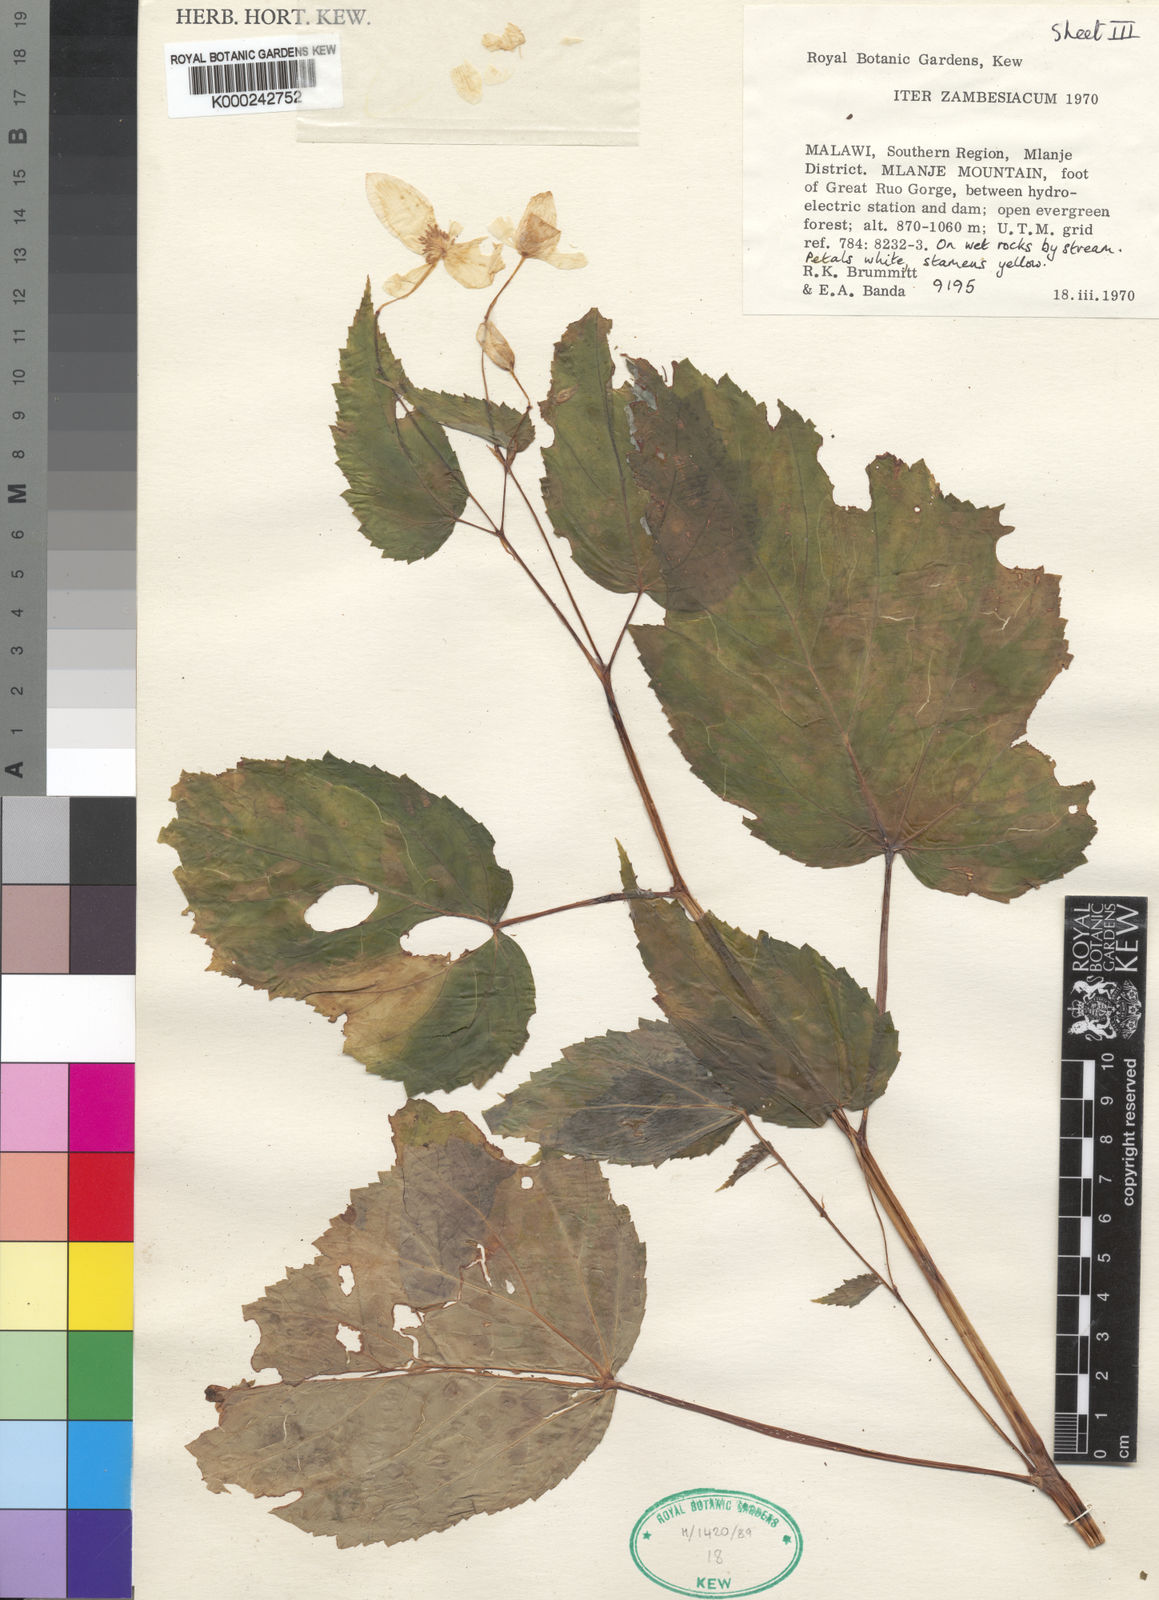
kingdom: Plantae
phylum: Tracheophyta
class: Magnoliopsida
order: Cucurbitales
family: Begoniaceae
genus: Begonia
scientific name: Begonia brevibracteata
